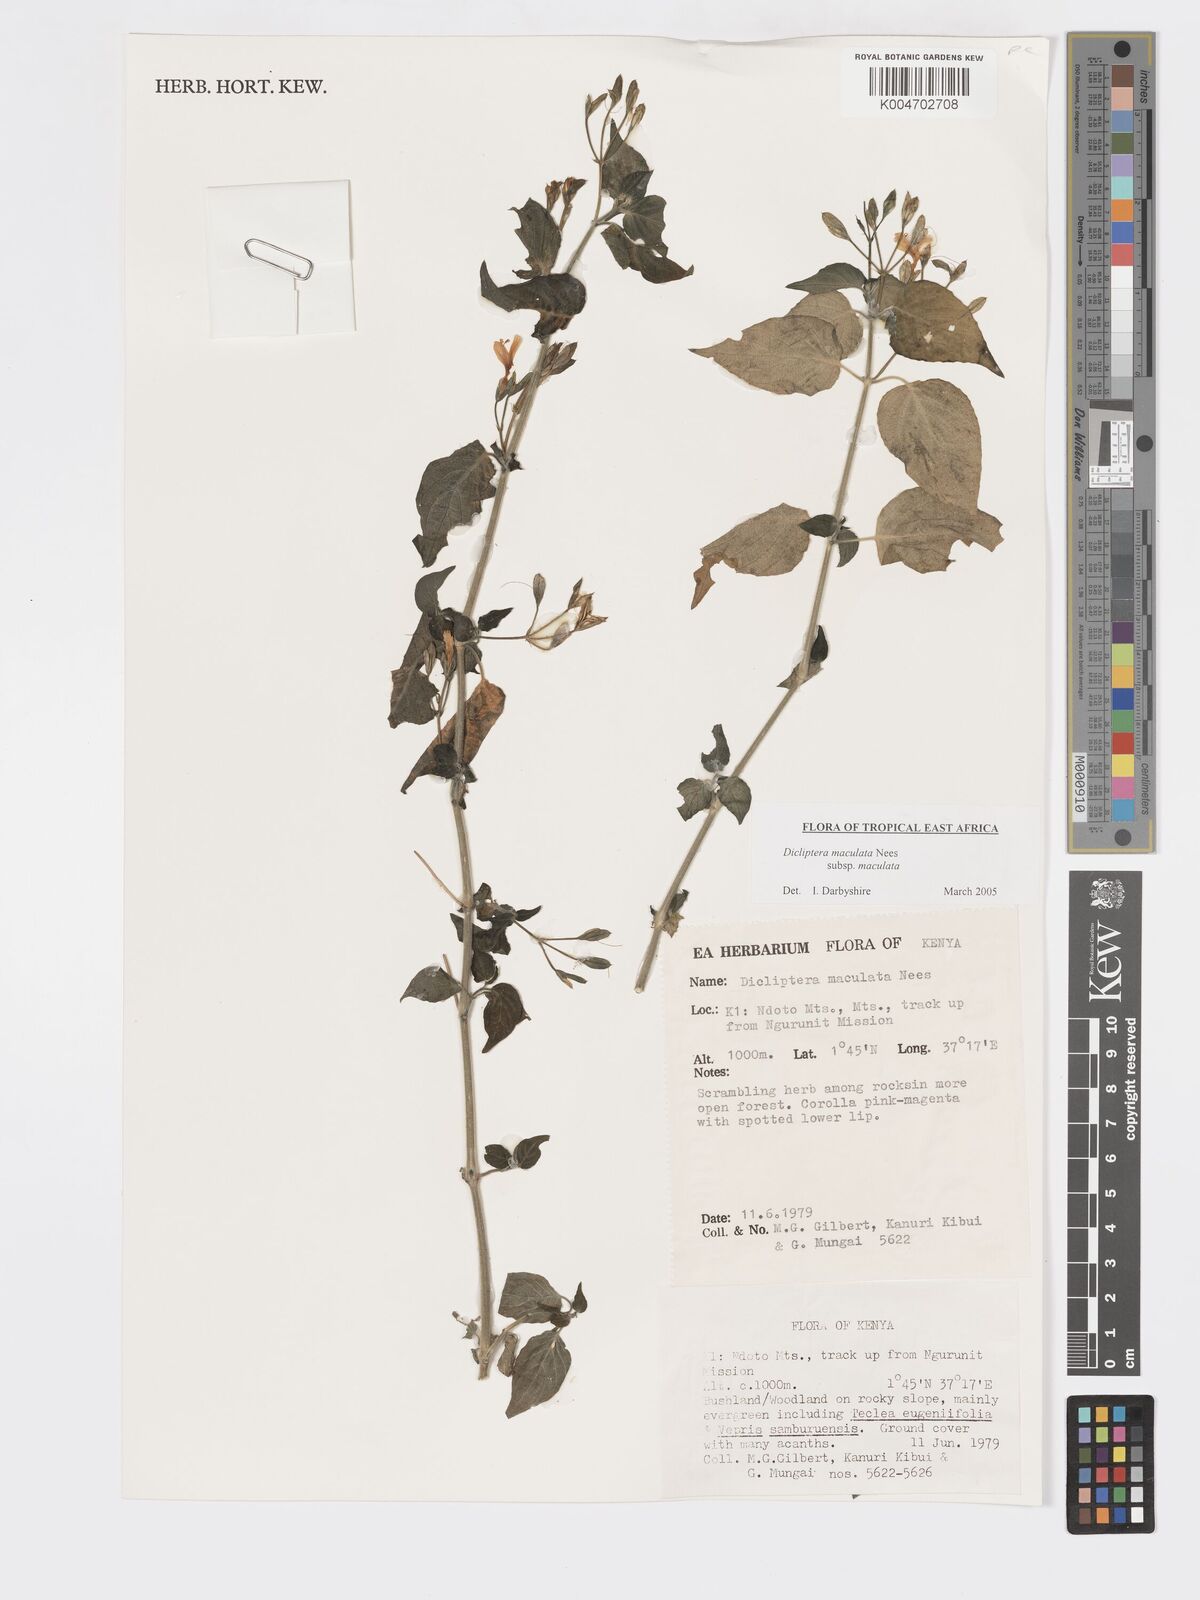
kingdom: Plantae
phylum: Tracheophyta
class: Magnoliopsida
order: Lamiales
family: Acanthaceae
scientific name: Acanthaceae
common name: Acanthaceae
